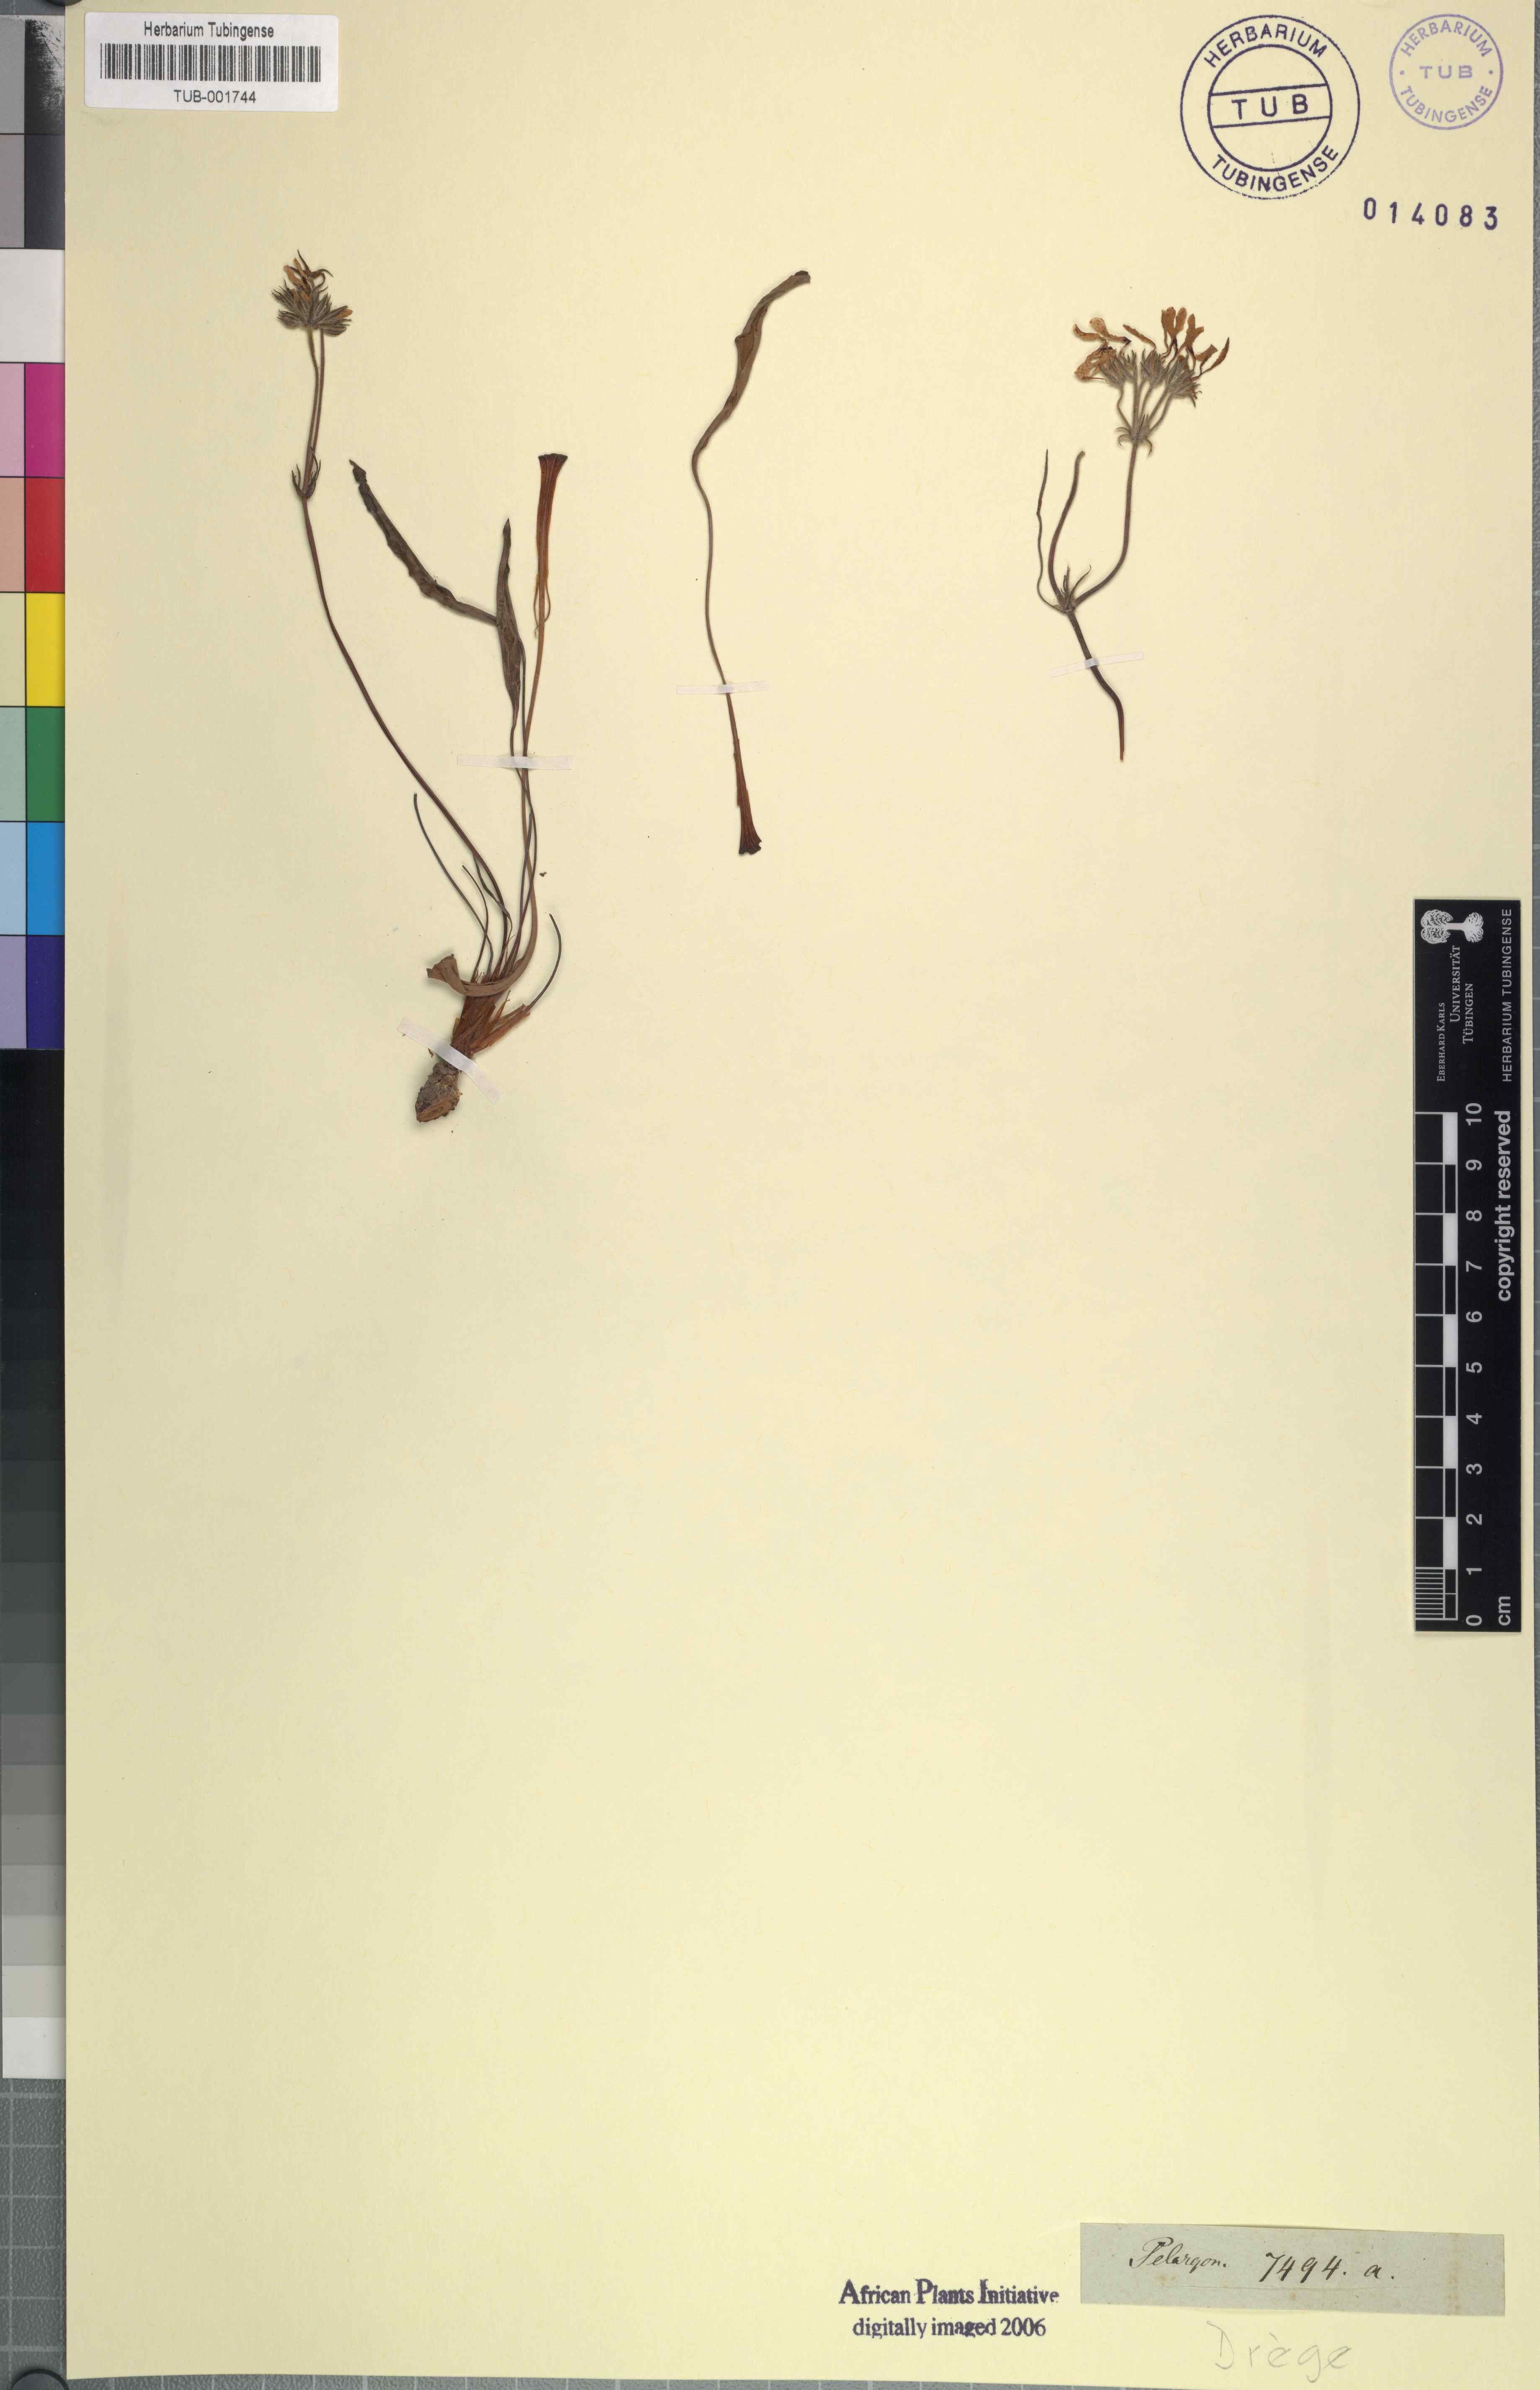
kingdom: Plantae
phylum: Tracheophyta
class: Magnoliopsida
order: Geraniales
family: Geraniaceae
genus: Pelargonium
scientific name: Pelargonium
